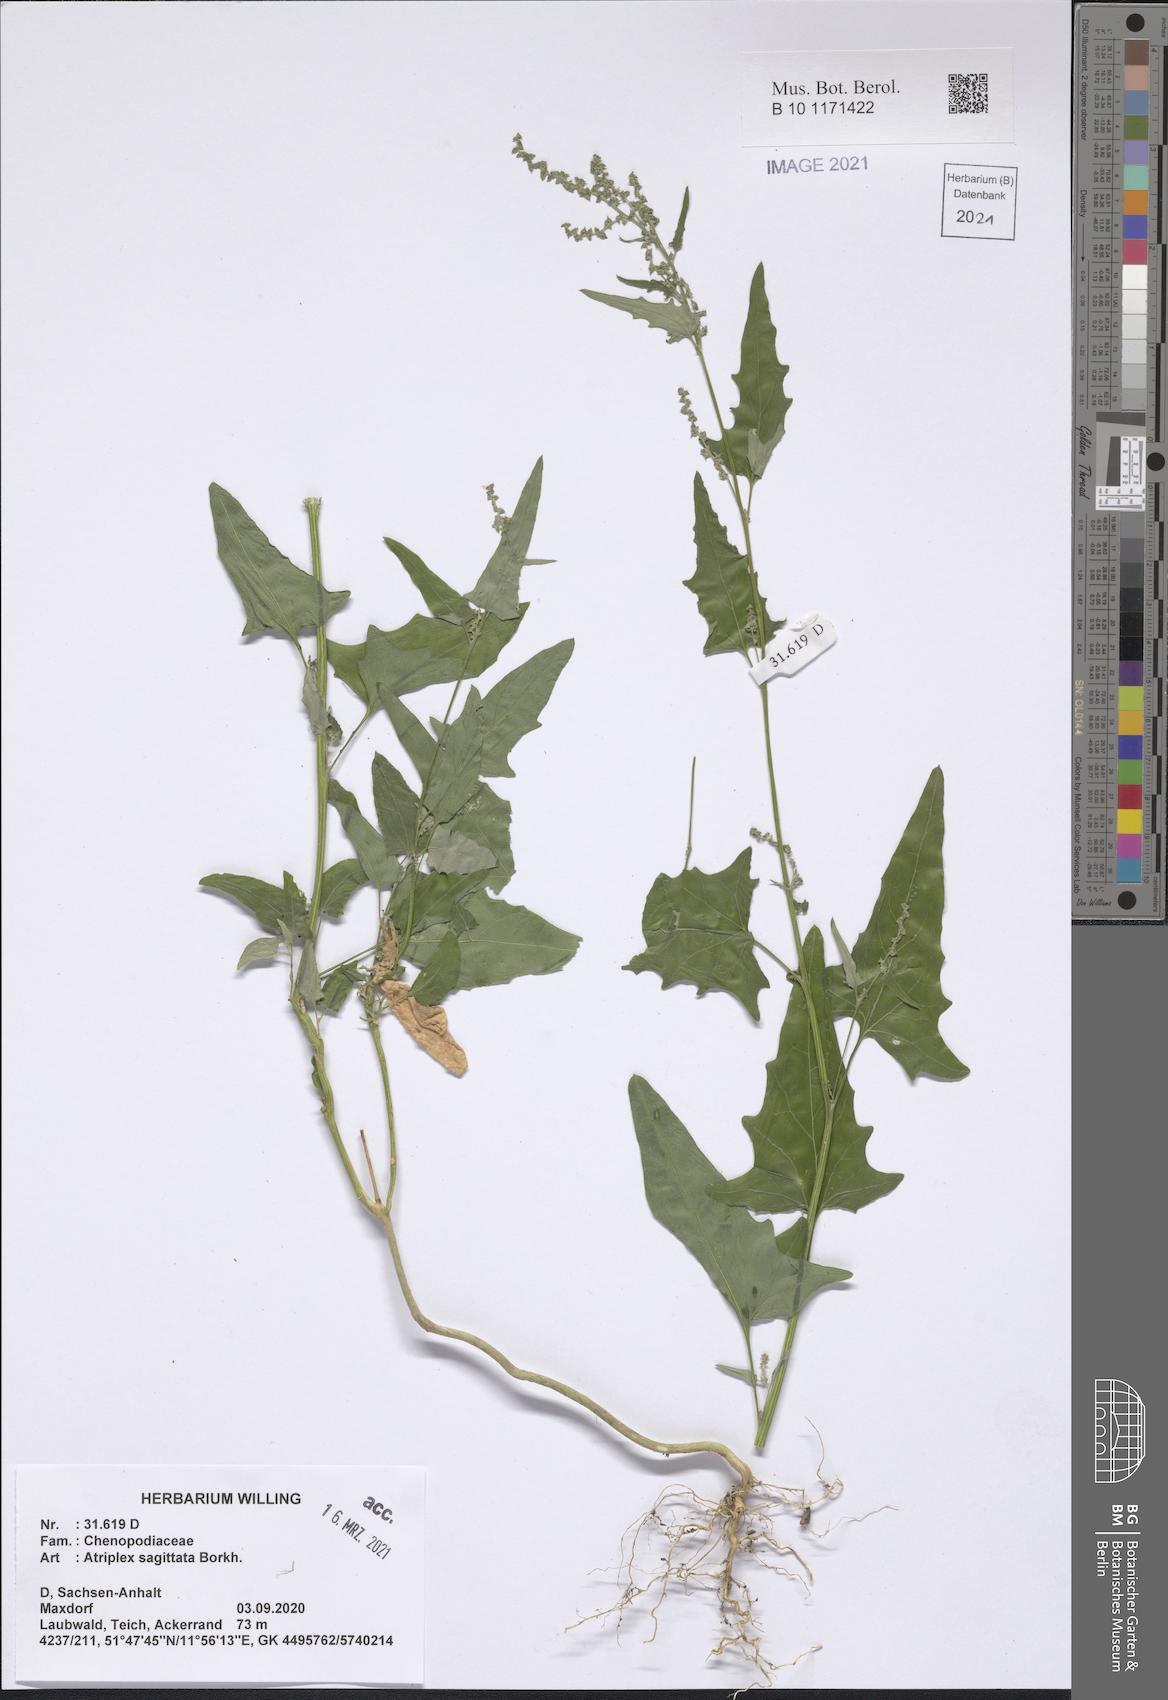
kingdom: Plantae
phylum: Tracheophyta
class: Magnoliopsida
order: Caryophyllales
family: Amaranthaceae
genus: Atriplex
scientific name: Atriplex sagittata
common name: Purple orache
